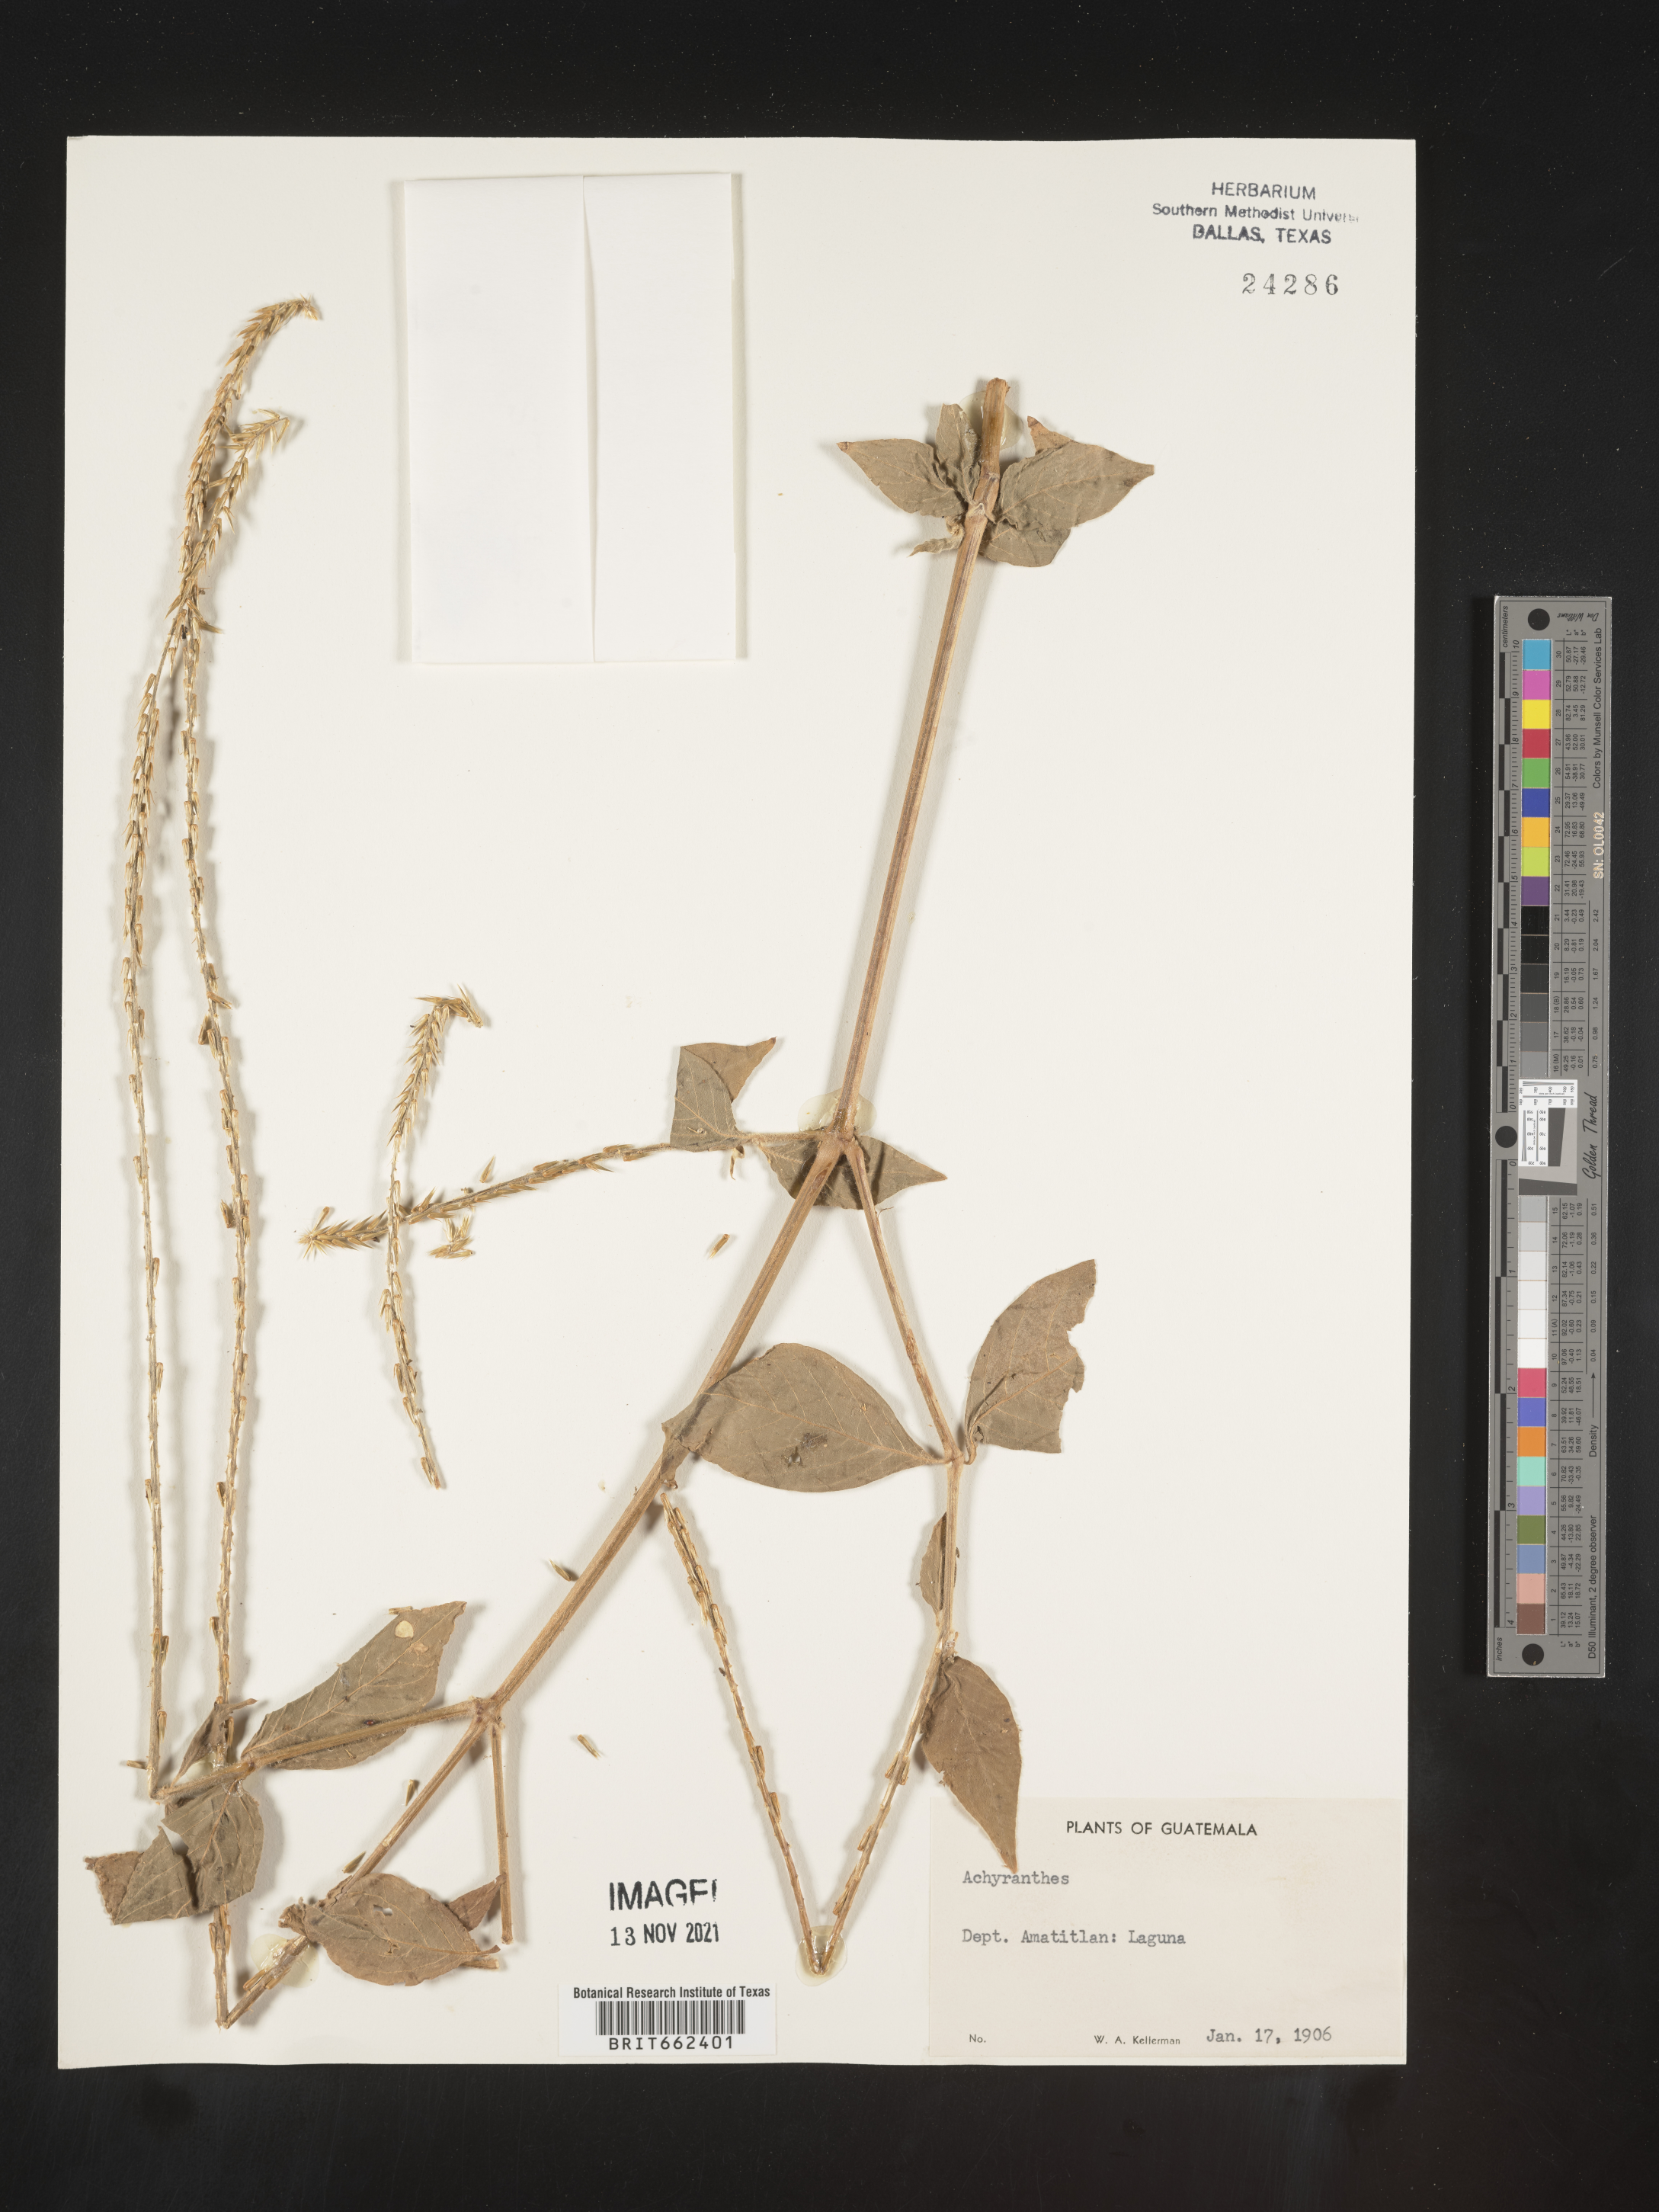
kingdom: Plantae
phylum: Tracheophyta
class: Magnoliopsida
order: Caryophyllales
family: Amaranthaceae
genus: Achyranthes
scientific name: Achyranthes
